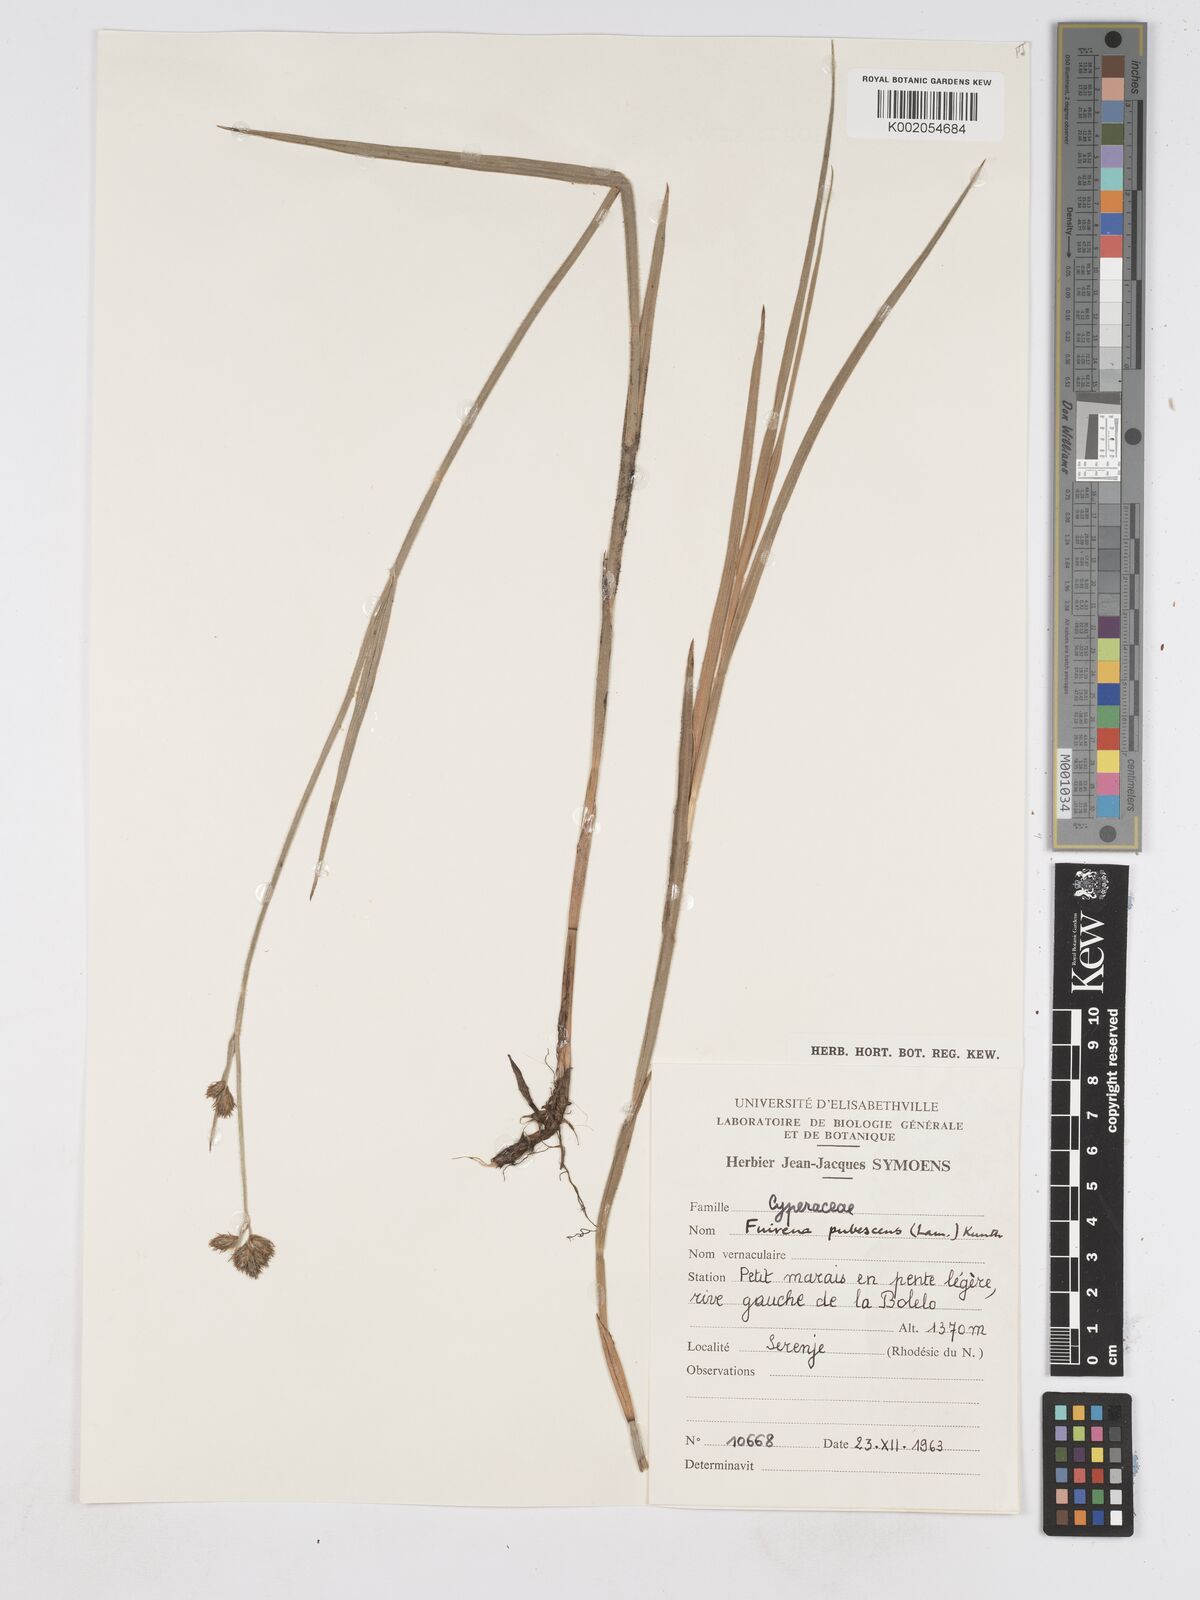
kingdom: Plantae
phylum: Tracheophyta
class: Liliopsida
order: Poales
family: Cyperaceae
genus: Fuirena
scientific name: Fuirena pachyrrhiza
